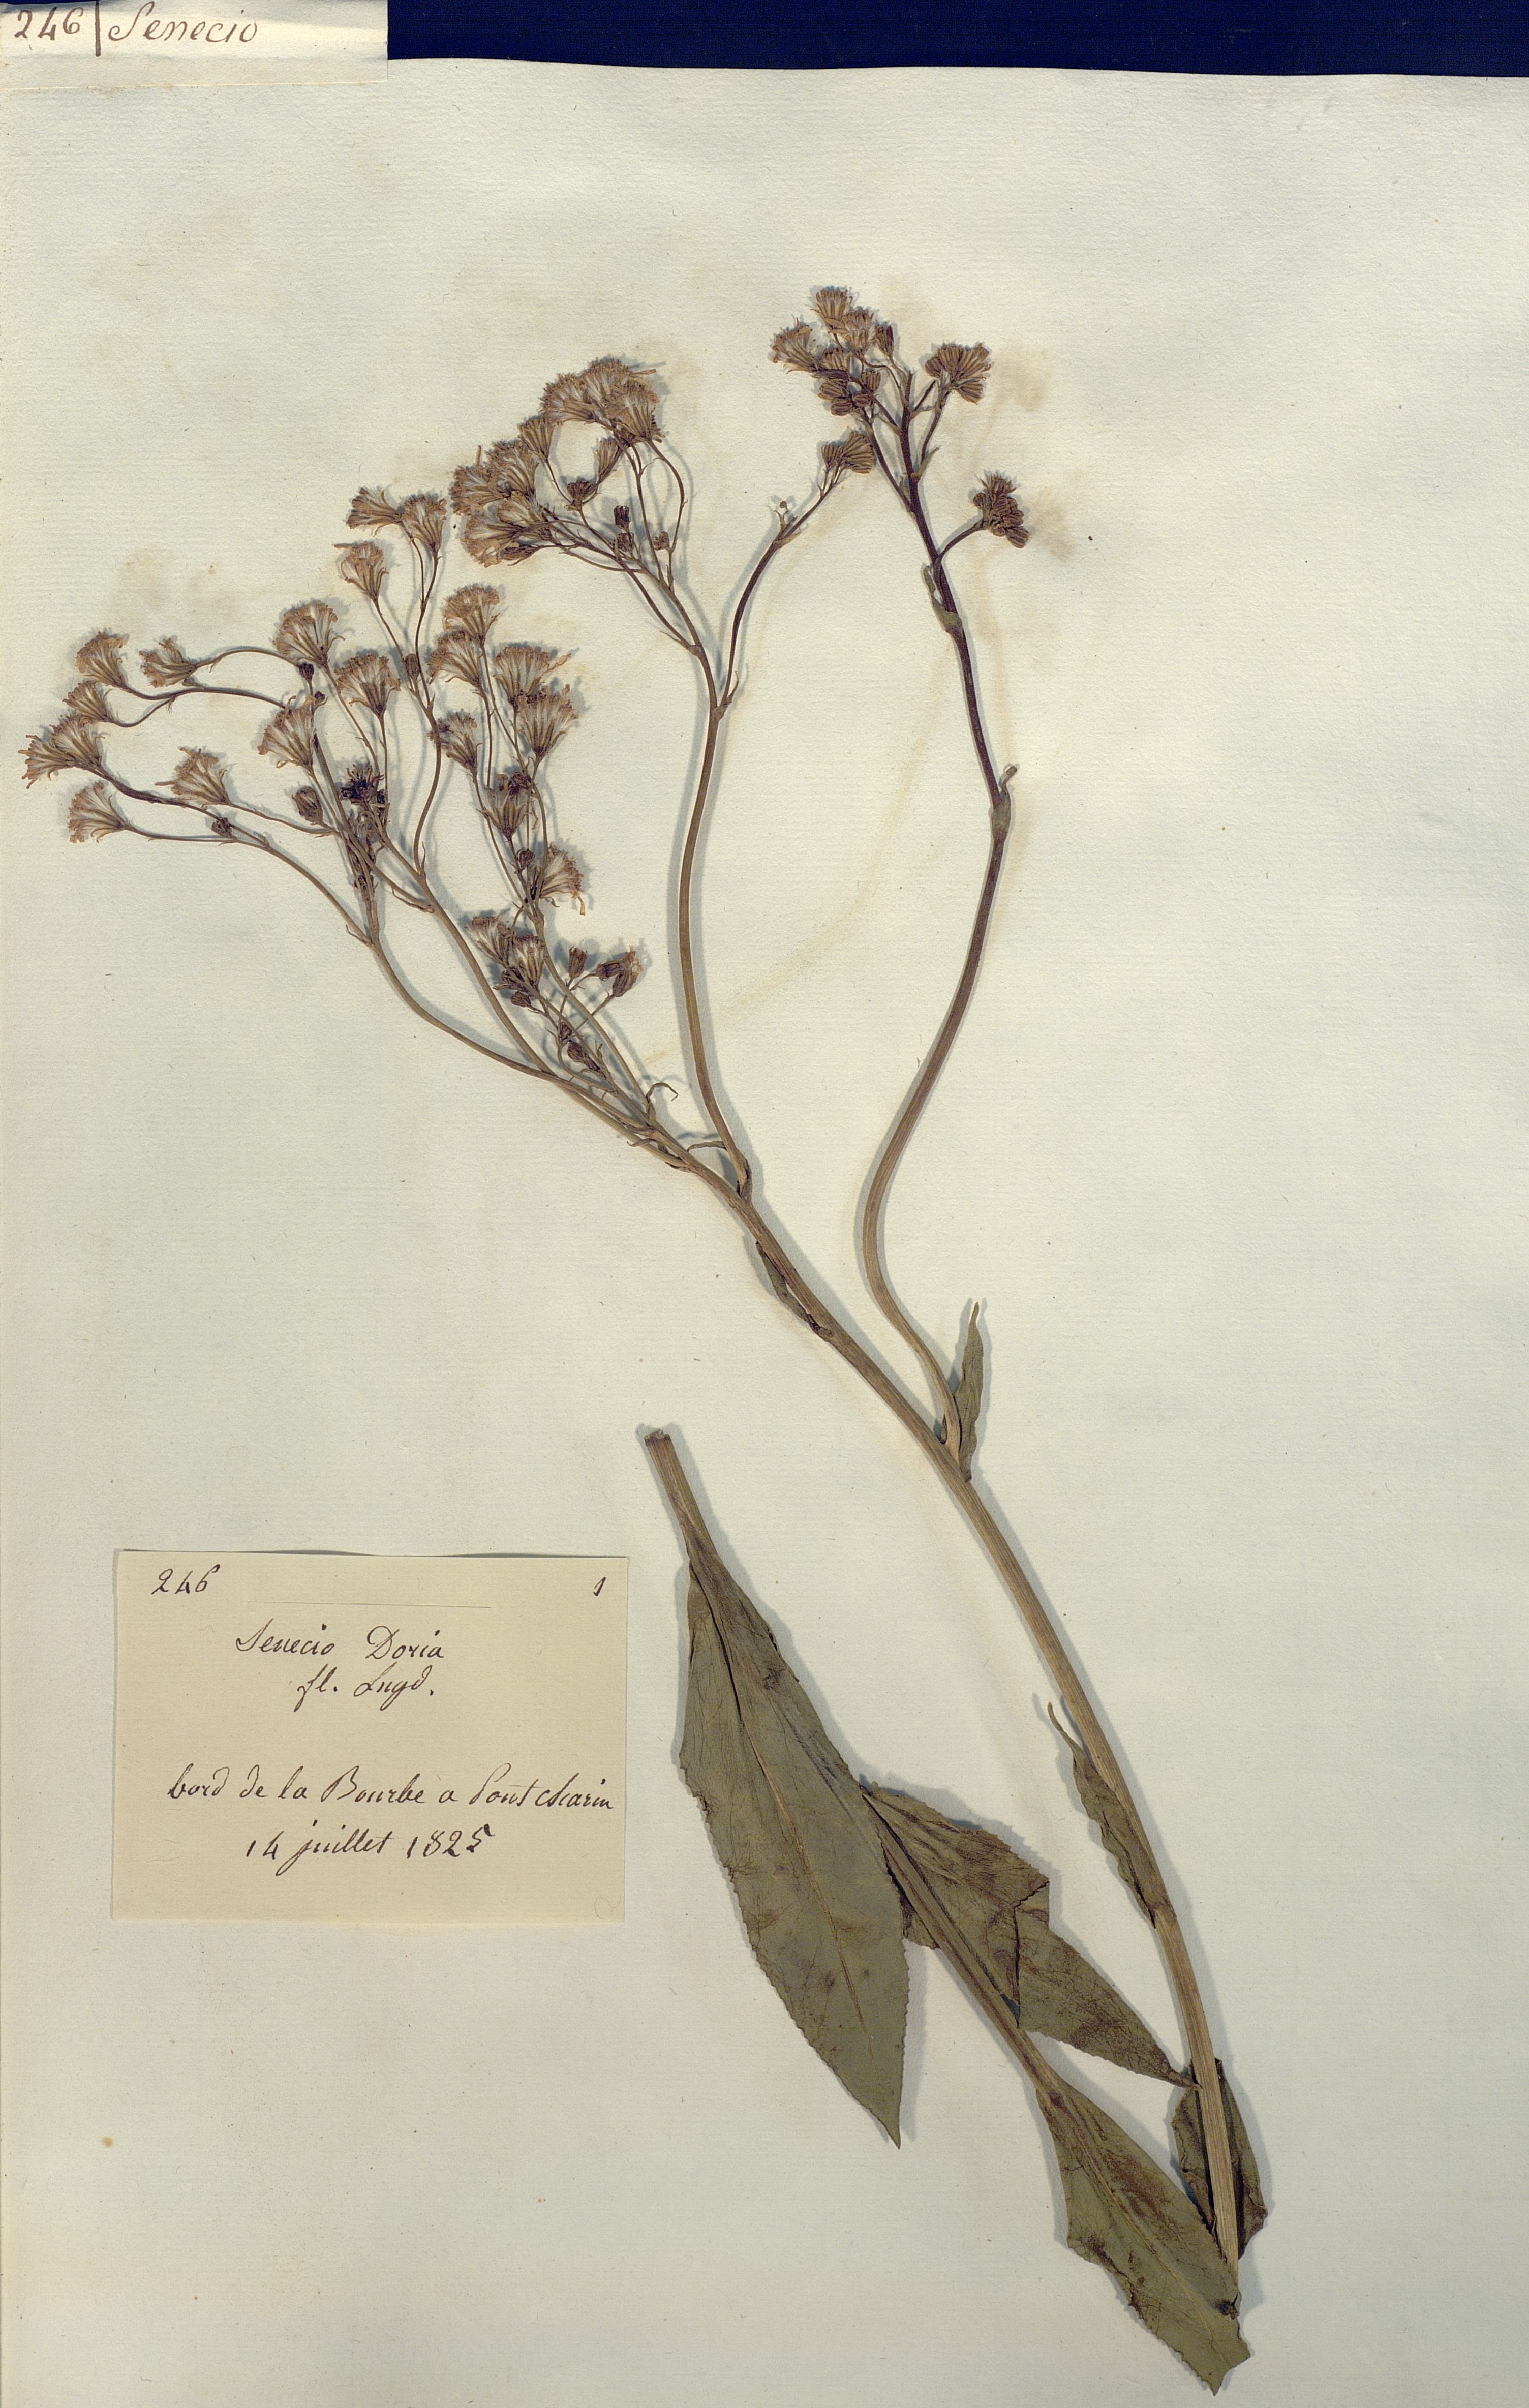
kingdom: Plantae
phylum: Tracheophyta
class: Magnoliopsida
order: Asterales
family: Asteraceae
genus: Senecio
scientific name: Senecio doria
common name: Golden ragwort
